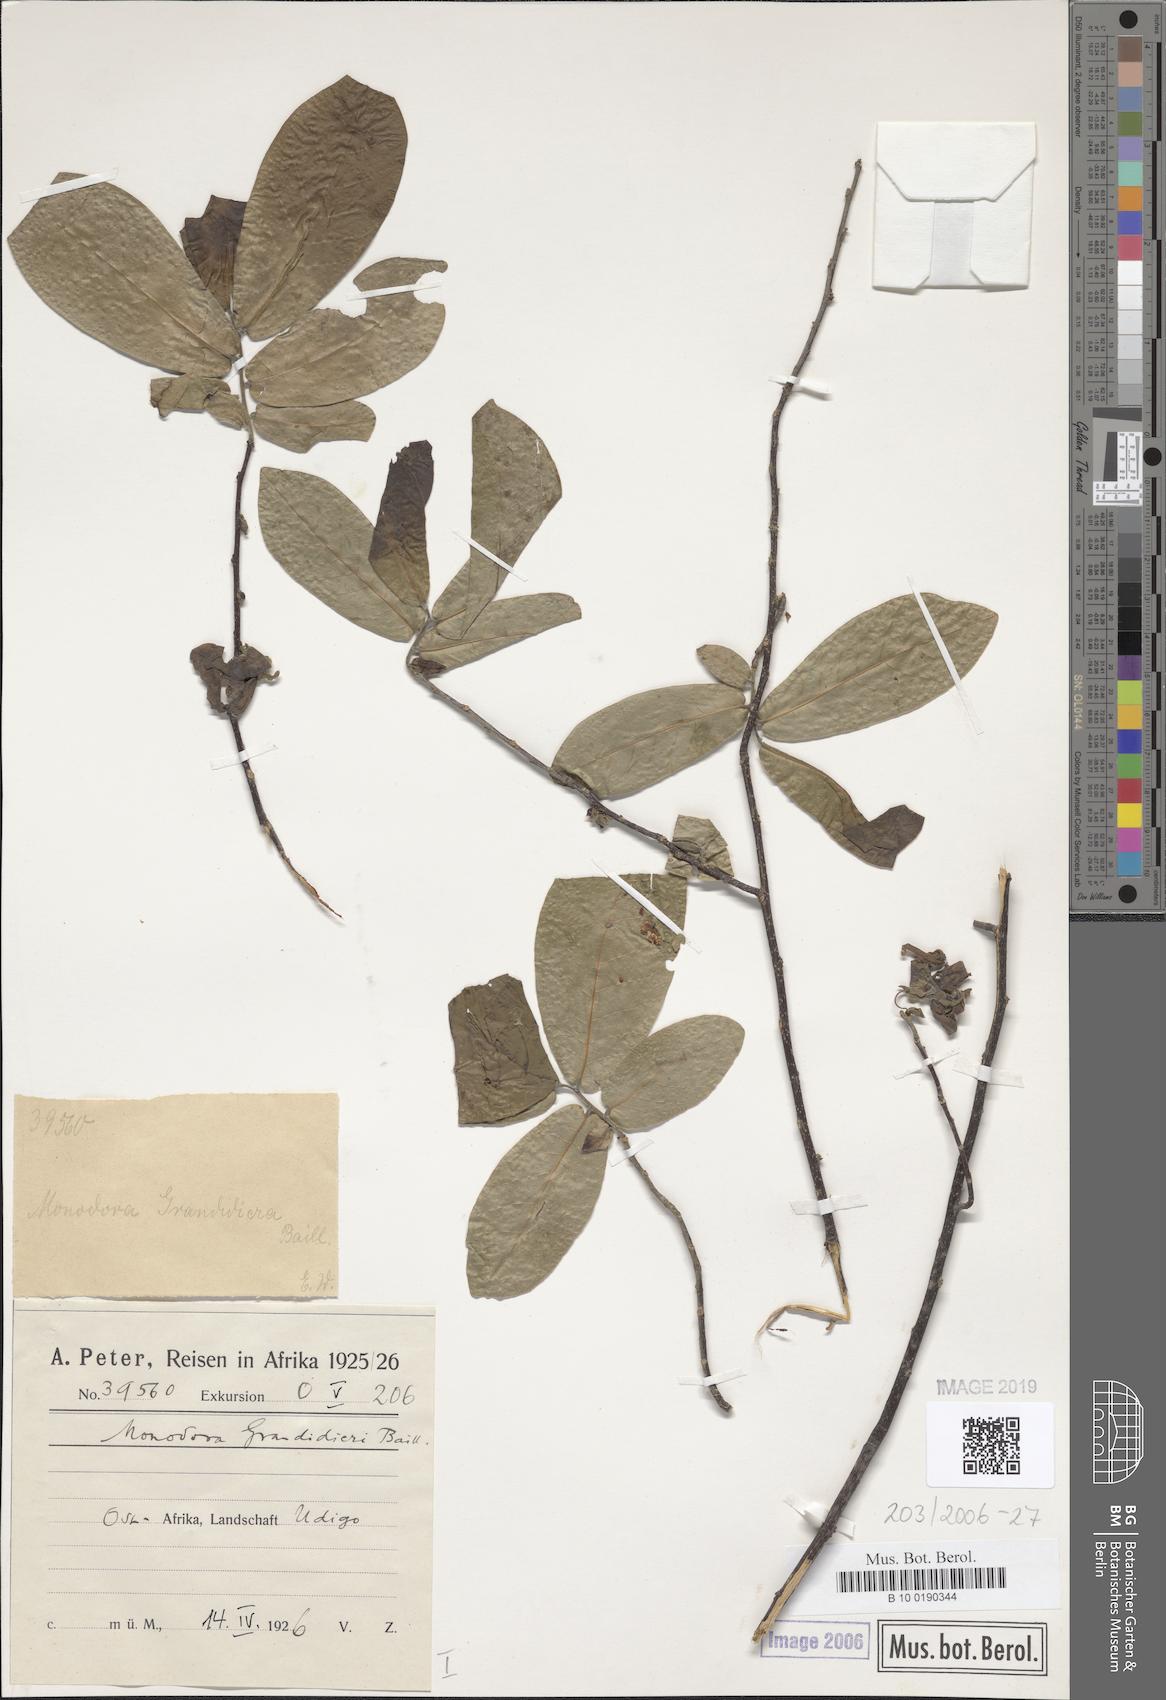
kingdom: Plantae
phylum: Tracheophyta
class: Magnoliopsida
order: Magnoliales
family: Annonaceae
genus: Monodora
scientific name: Monodora grandidieri
